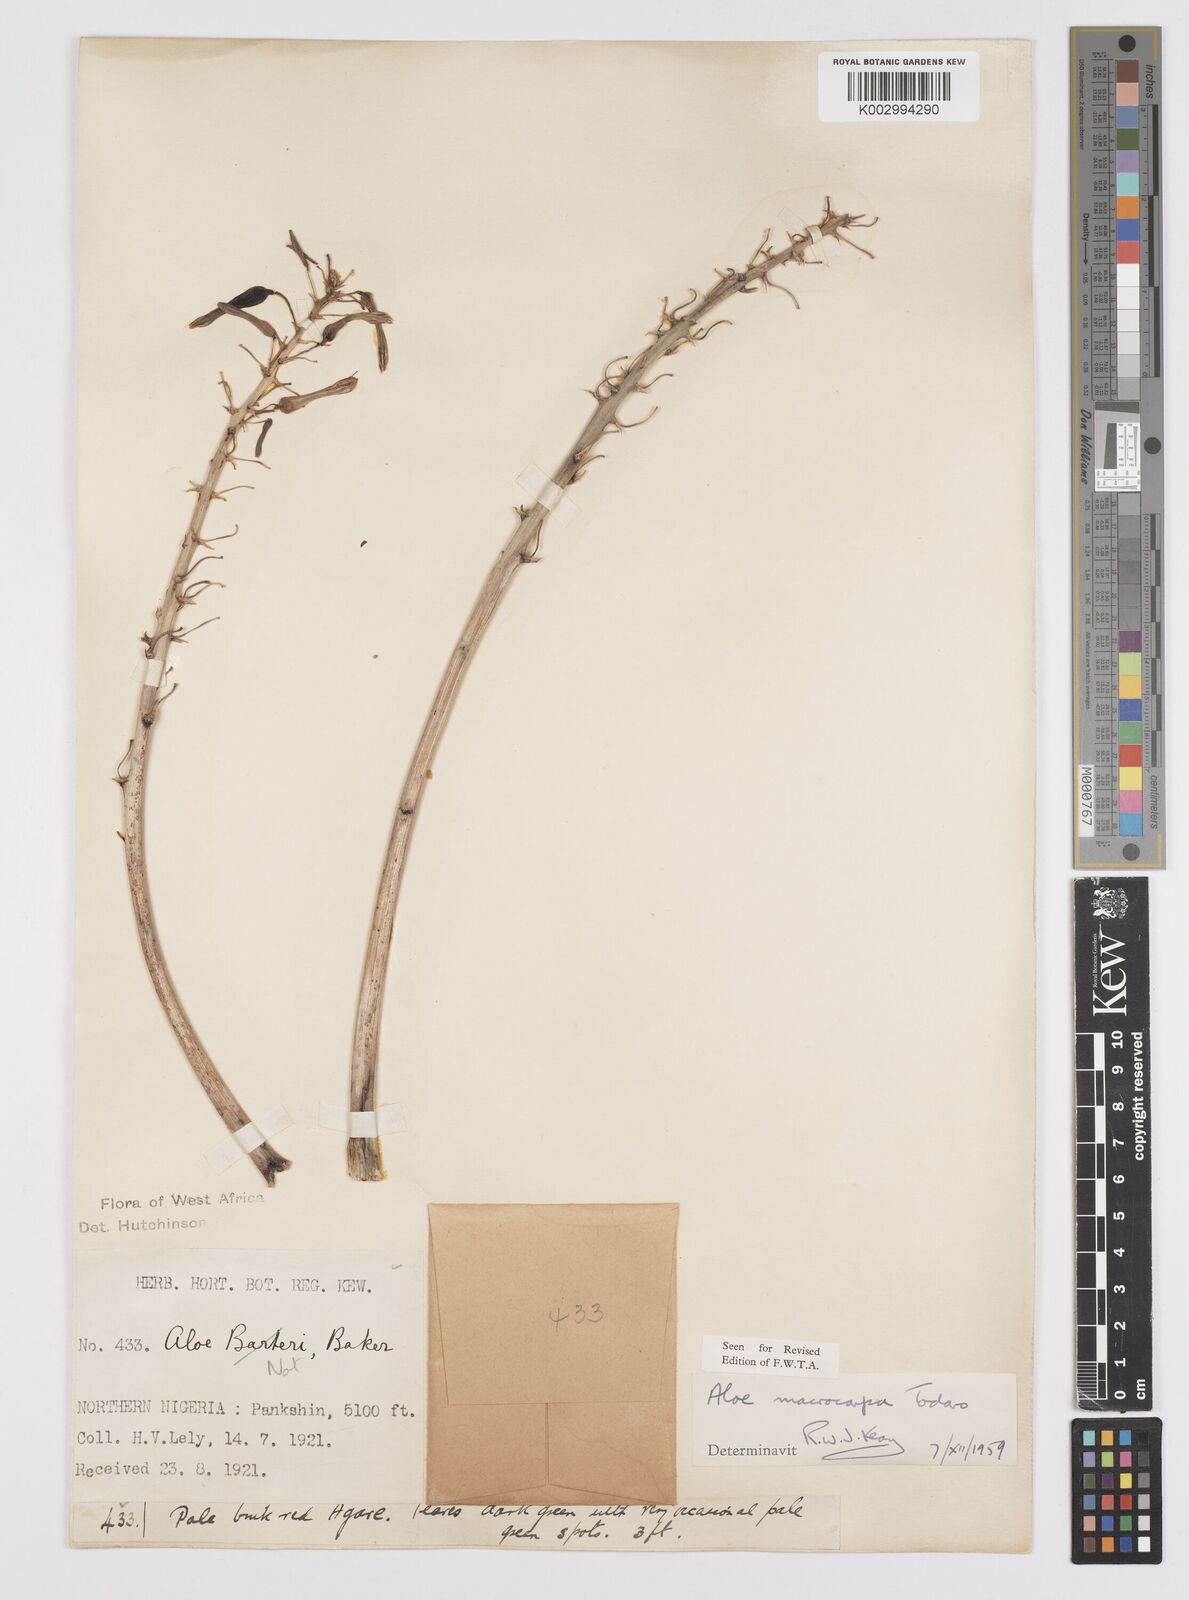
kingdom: Plantae
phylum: Tracheophyta
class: Liliopsida
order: Asparagales
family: Asphodelaceae
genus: Aloe
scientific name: Aloe macrocarpa
